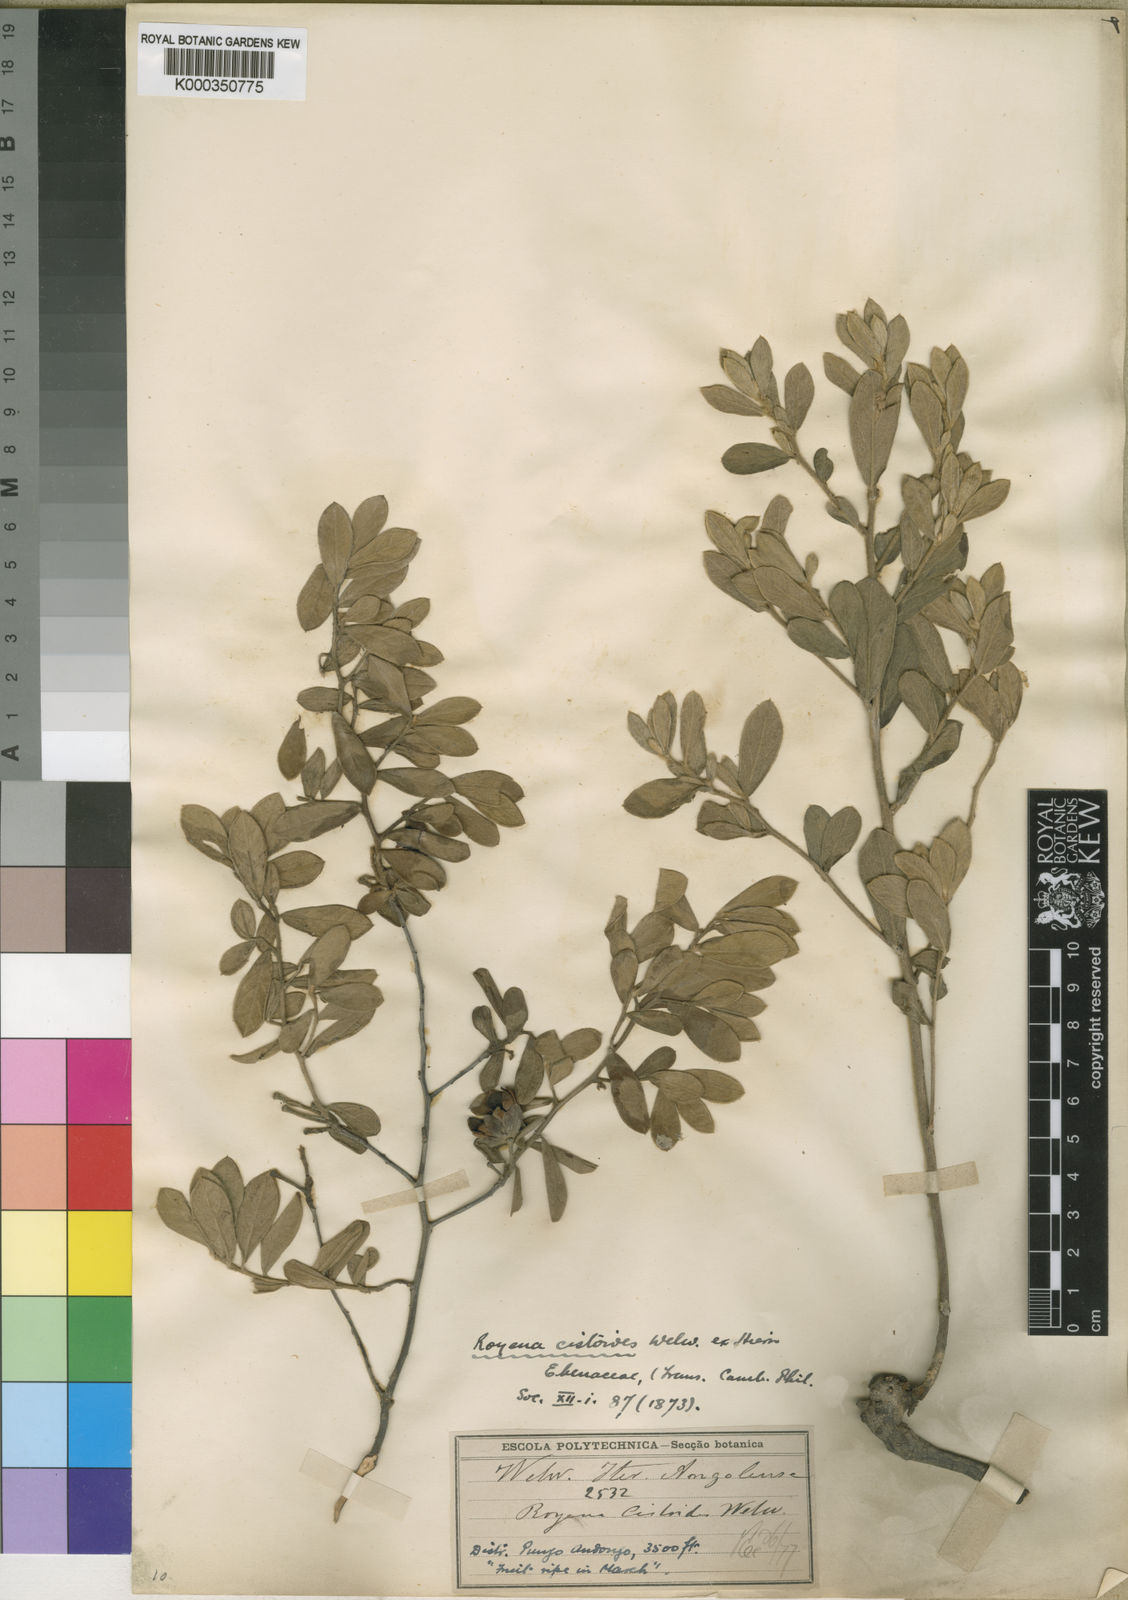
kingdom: Plantae
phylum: Tracheophyta
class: Magnoliopsida
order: Ericales
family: Ebenaceae
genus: Diospyros
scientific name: Diospyros lycioides
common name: Red star apple
